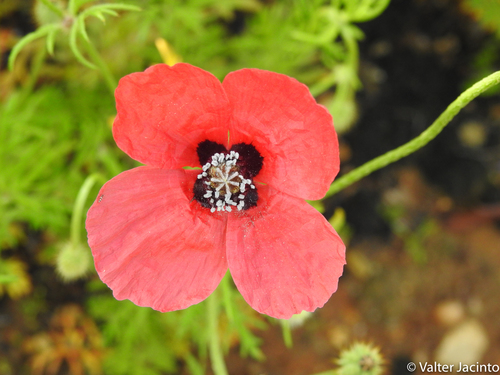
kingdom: Plantae
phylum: Tracheophyta
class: Magnoliopsida
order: Ranunculales
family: Papaveraceae
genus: Roemeria
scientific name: Roemeria
